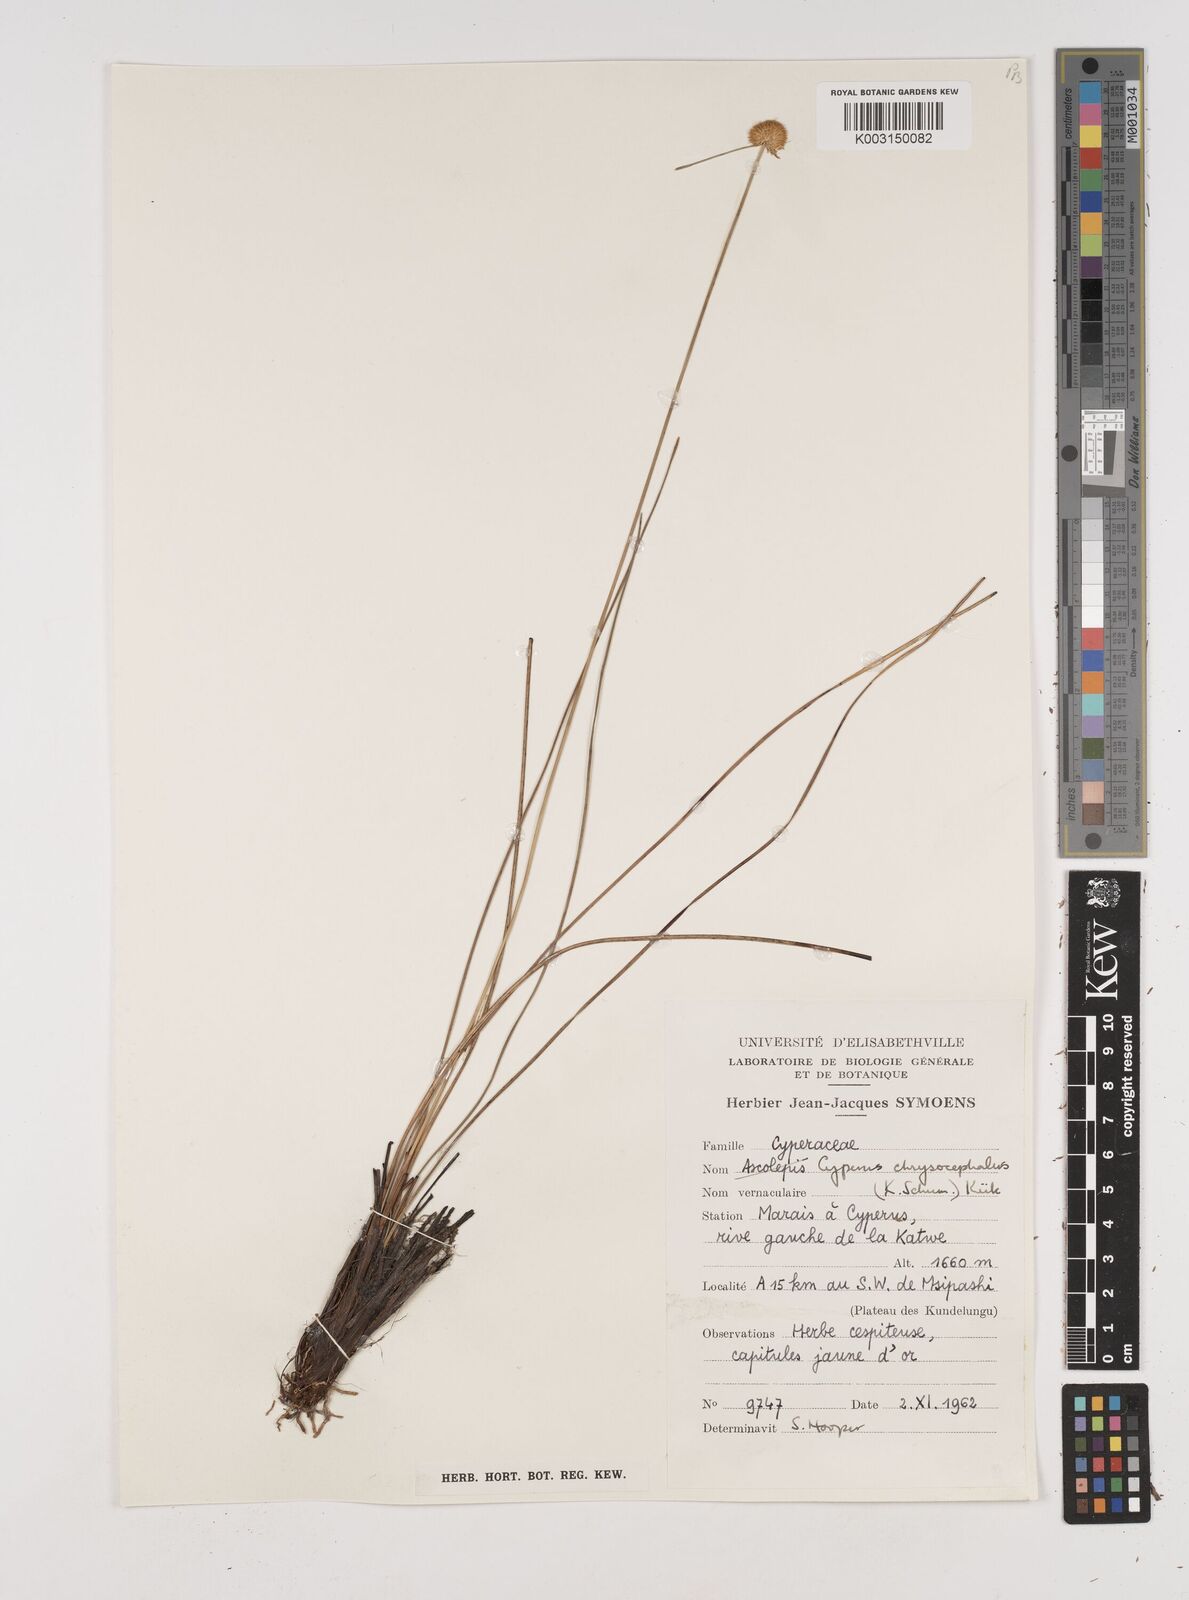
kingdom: Plantae
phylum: Tracheophyta
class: Liliopsida
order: Poales
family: Cyperaceae
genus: Cyperus
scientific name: Cyperus chrysocephalus
